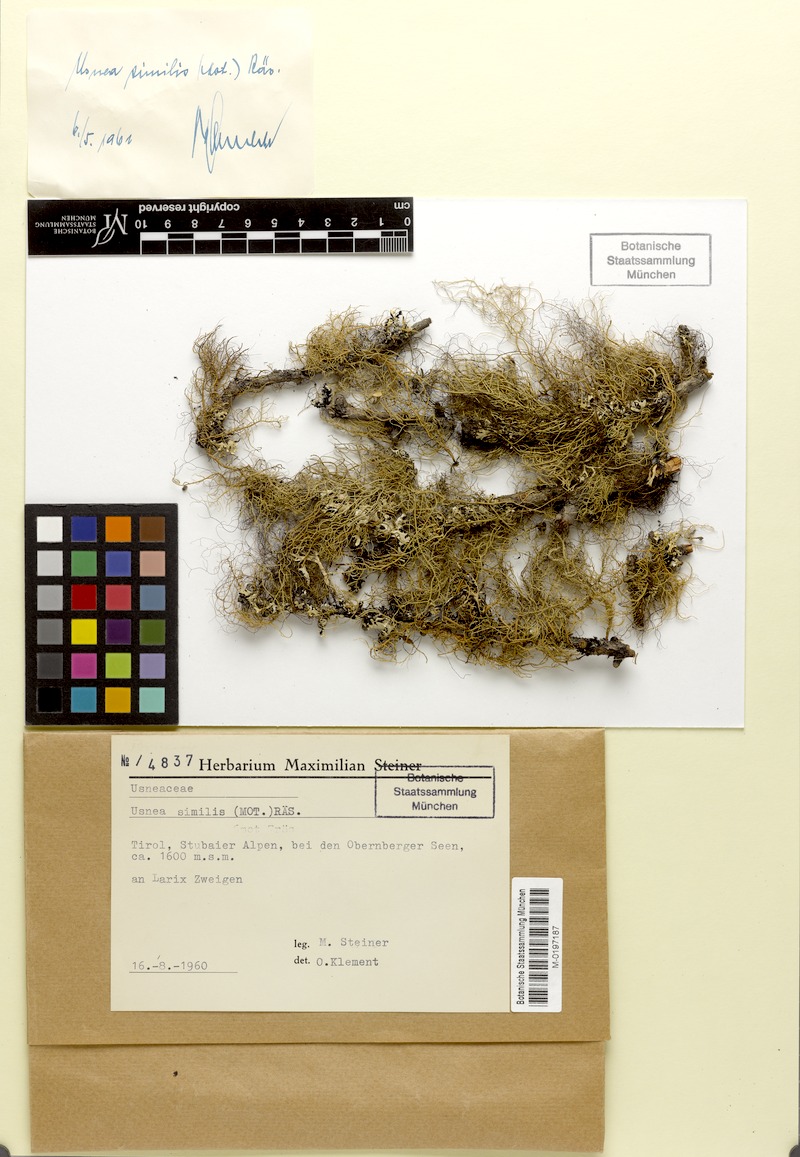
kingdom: Fungi
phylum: Ascomycota
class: Lecanoromycetes
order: Lecanorales
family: Parmeliaceae
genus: Usnea
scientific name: Usnea subfloridana
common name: Boreal beard lichen
